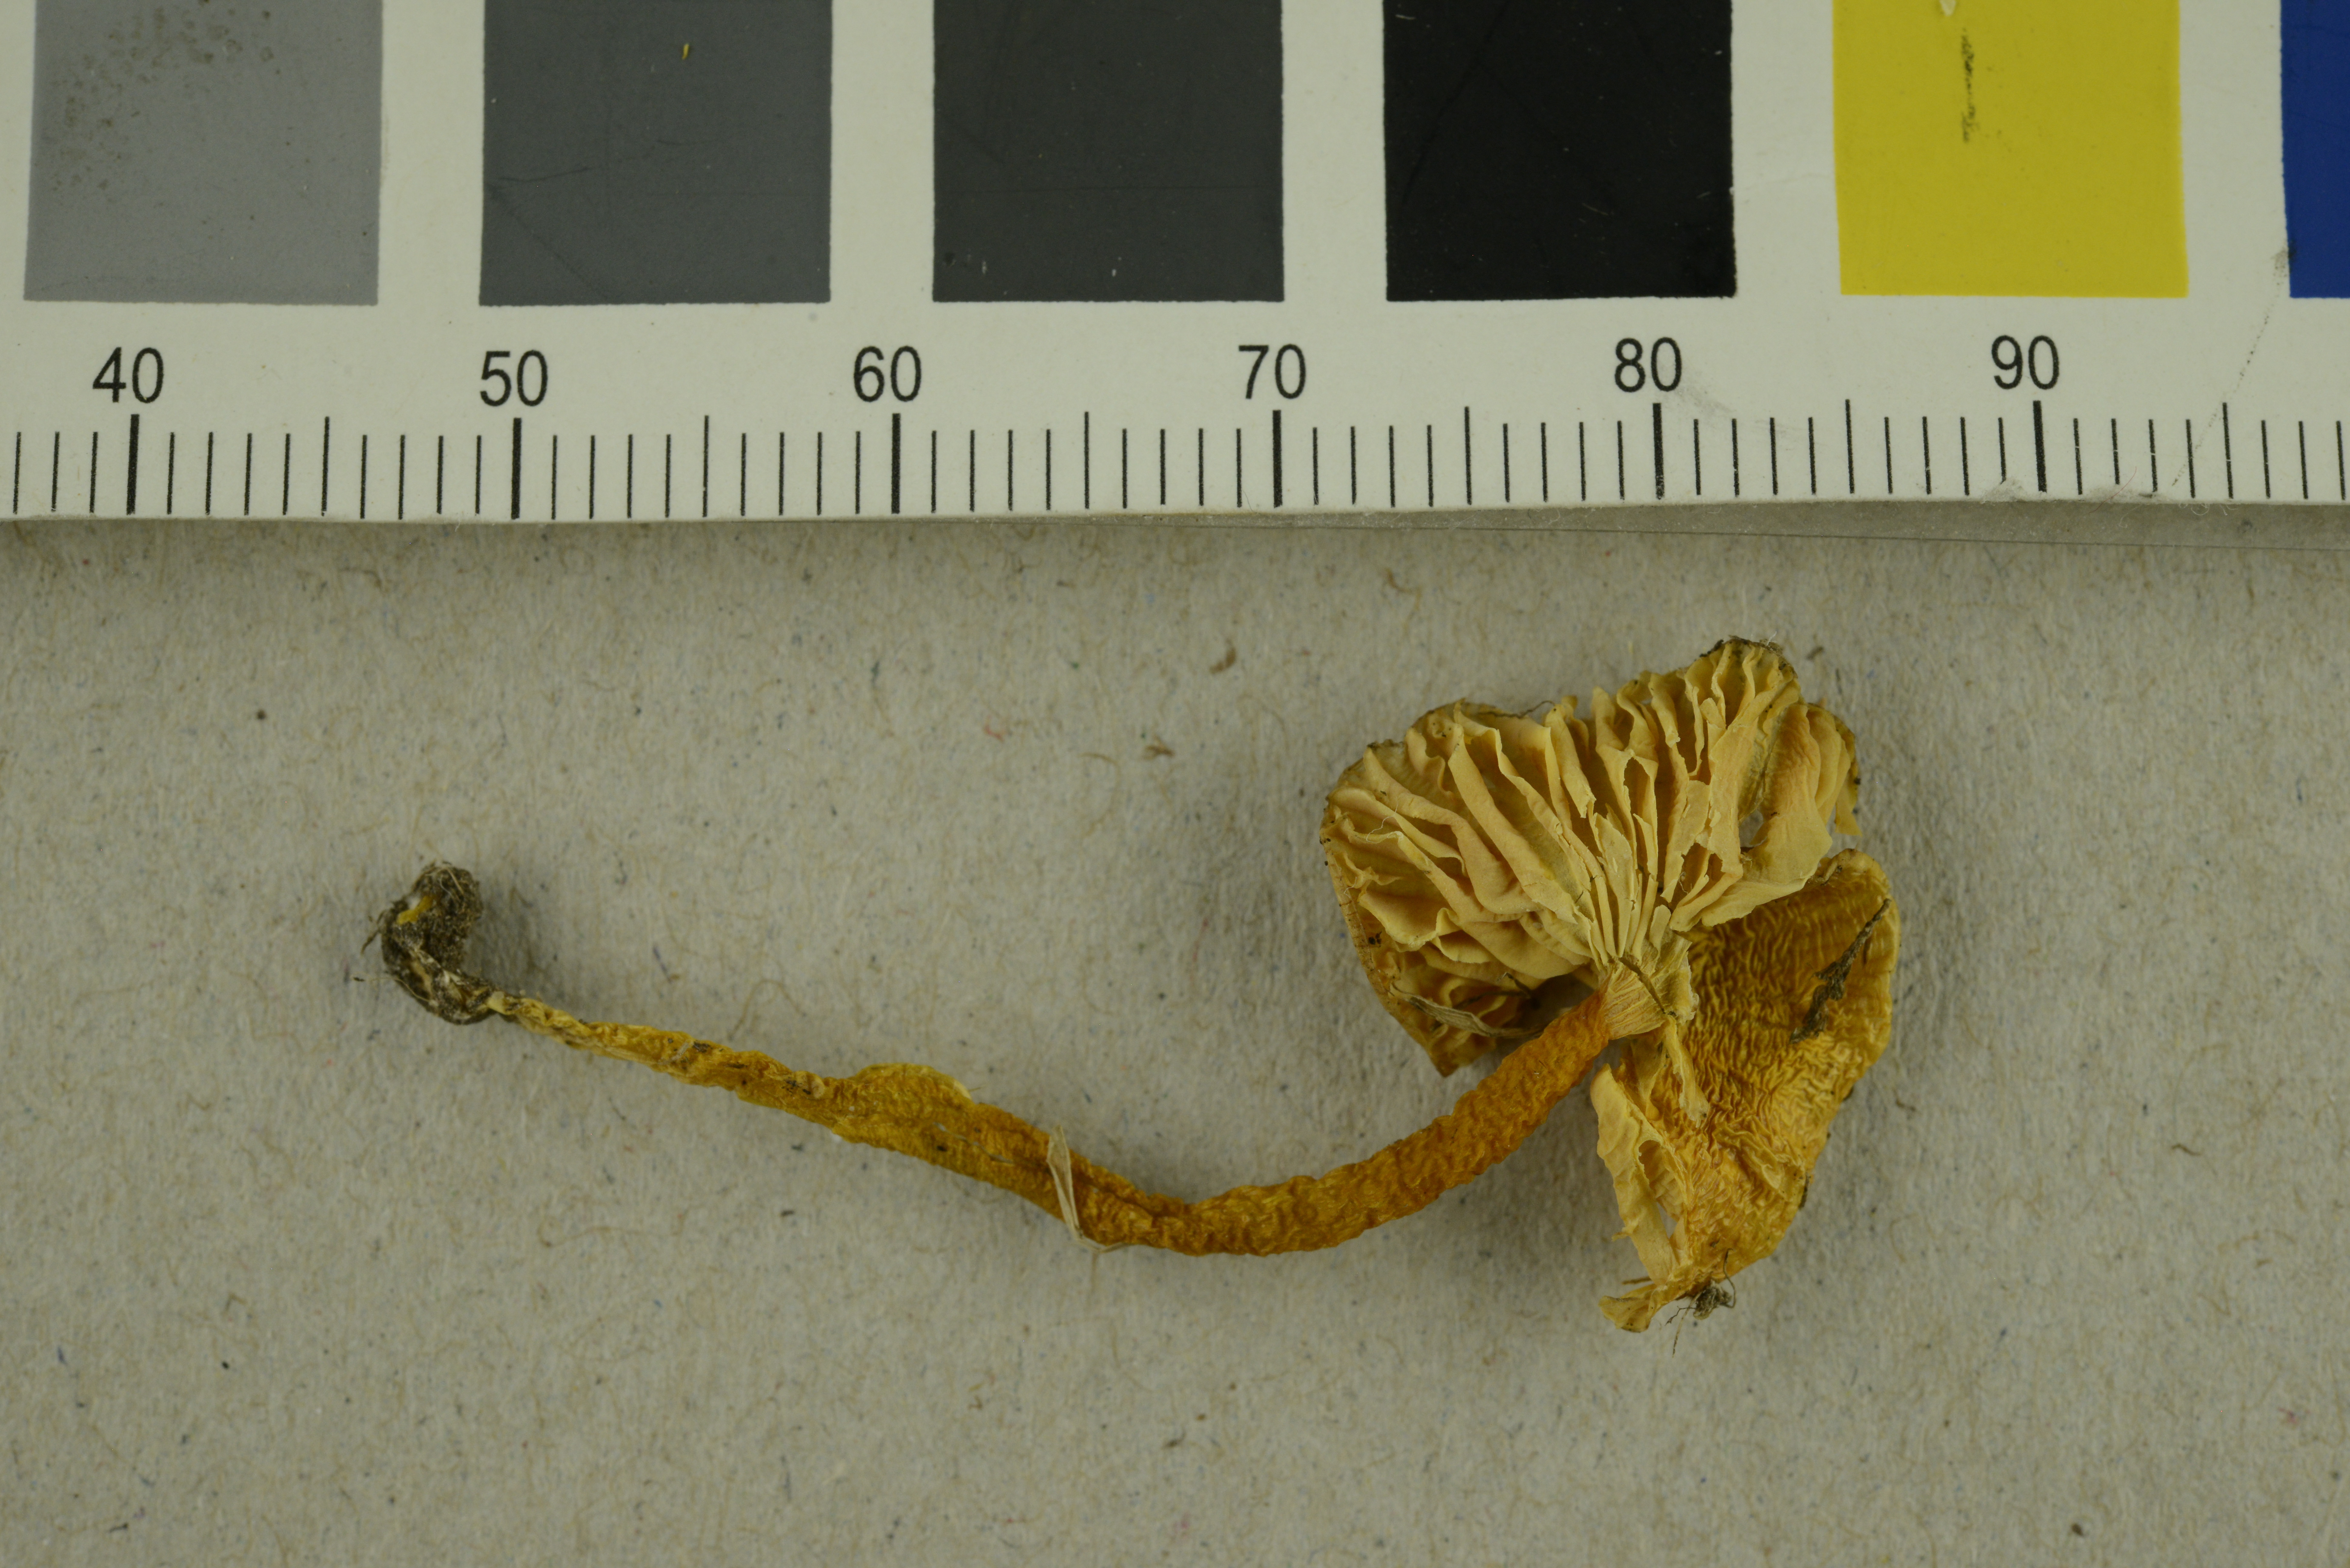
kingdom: Fungi
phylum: Basidiomycota
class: Agaricomycetes
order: Agaricales
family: Hygrophoraceae
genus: Hygrocybe
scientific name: Hygrocybe subpapillata
